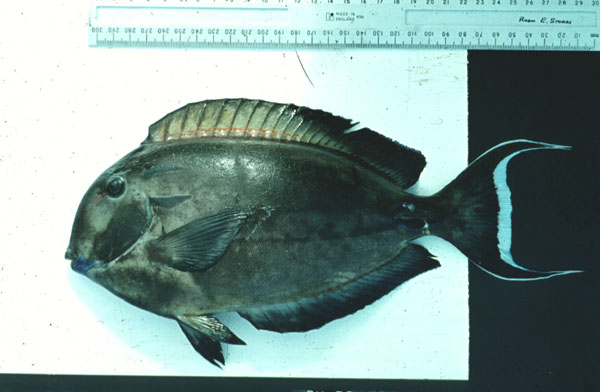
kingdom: Animalia
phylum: Chordata
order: Perciformes
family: Acanthuridae
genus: Acanthurus
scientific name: Acanthurus tennentii
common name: Doubleband surgeonfish
